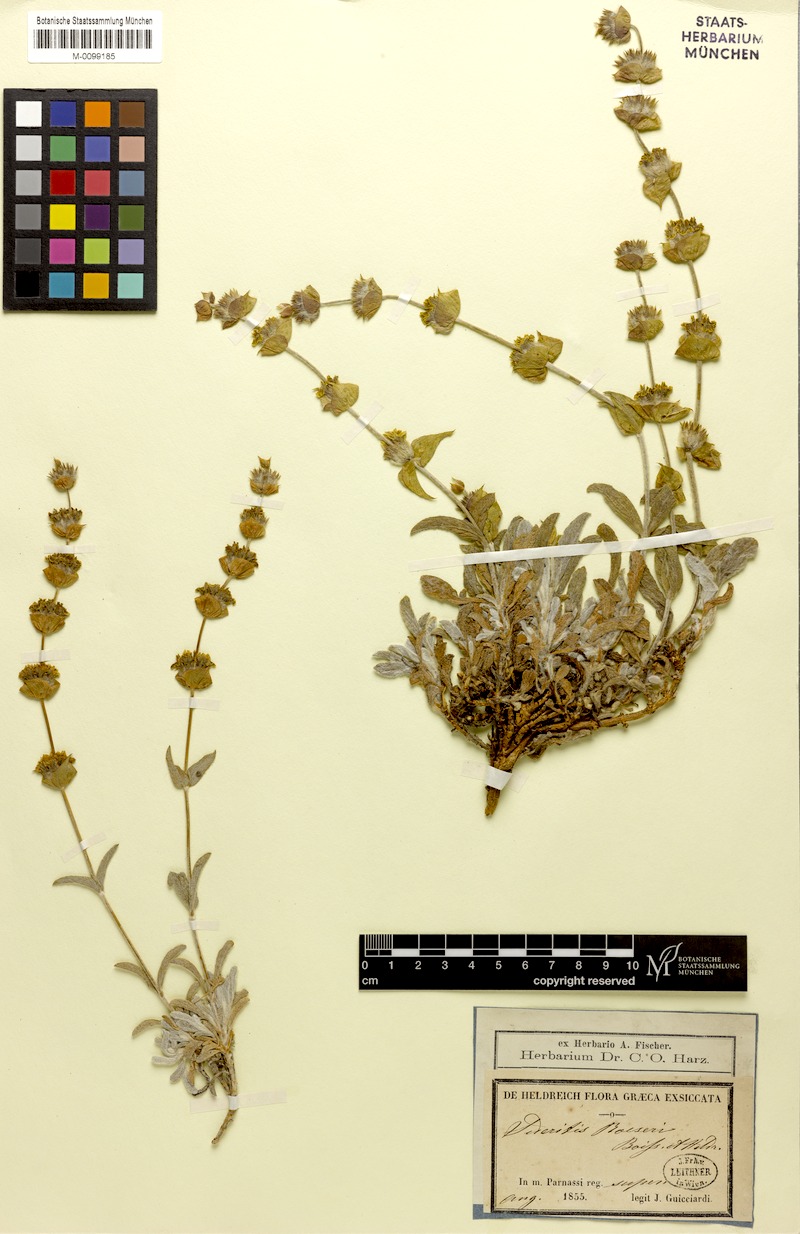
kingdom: Plantae
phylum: Tracheophyta
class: Magnoliopsida
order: Lamiales
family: Lamiaceae
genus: Sideritis
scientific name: Sideritis raeseri
